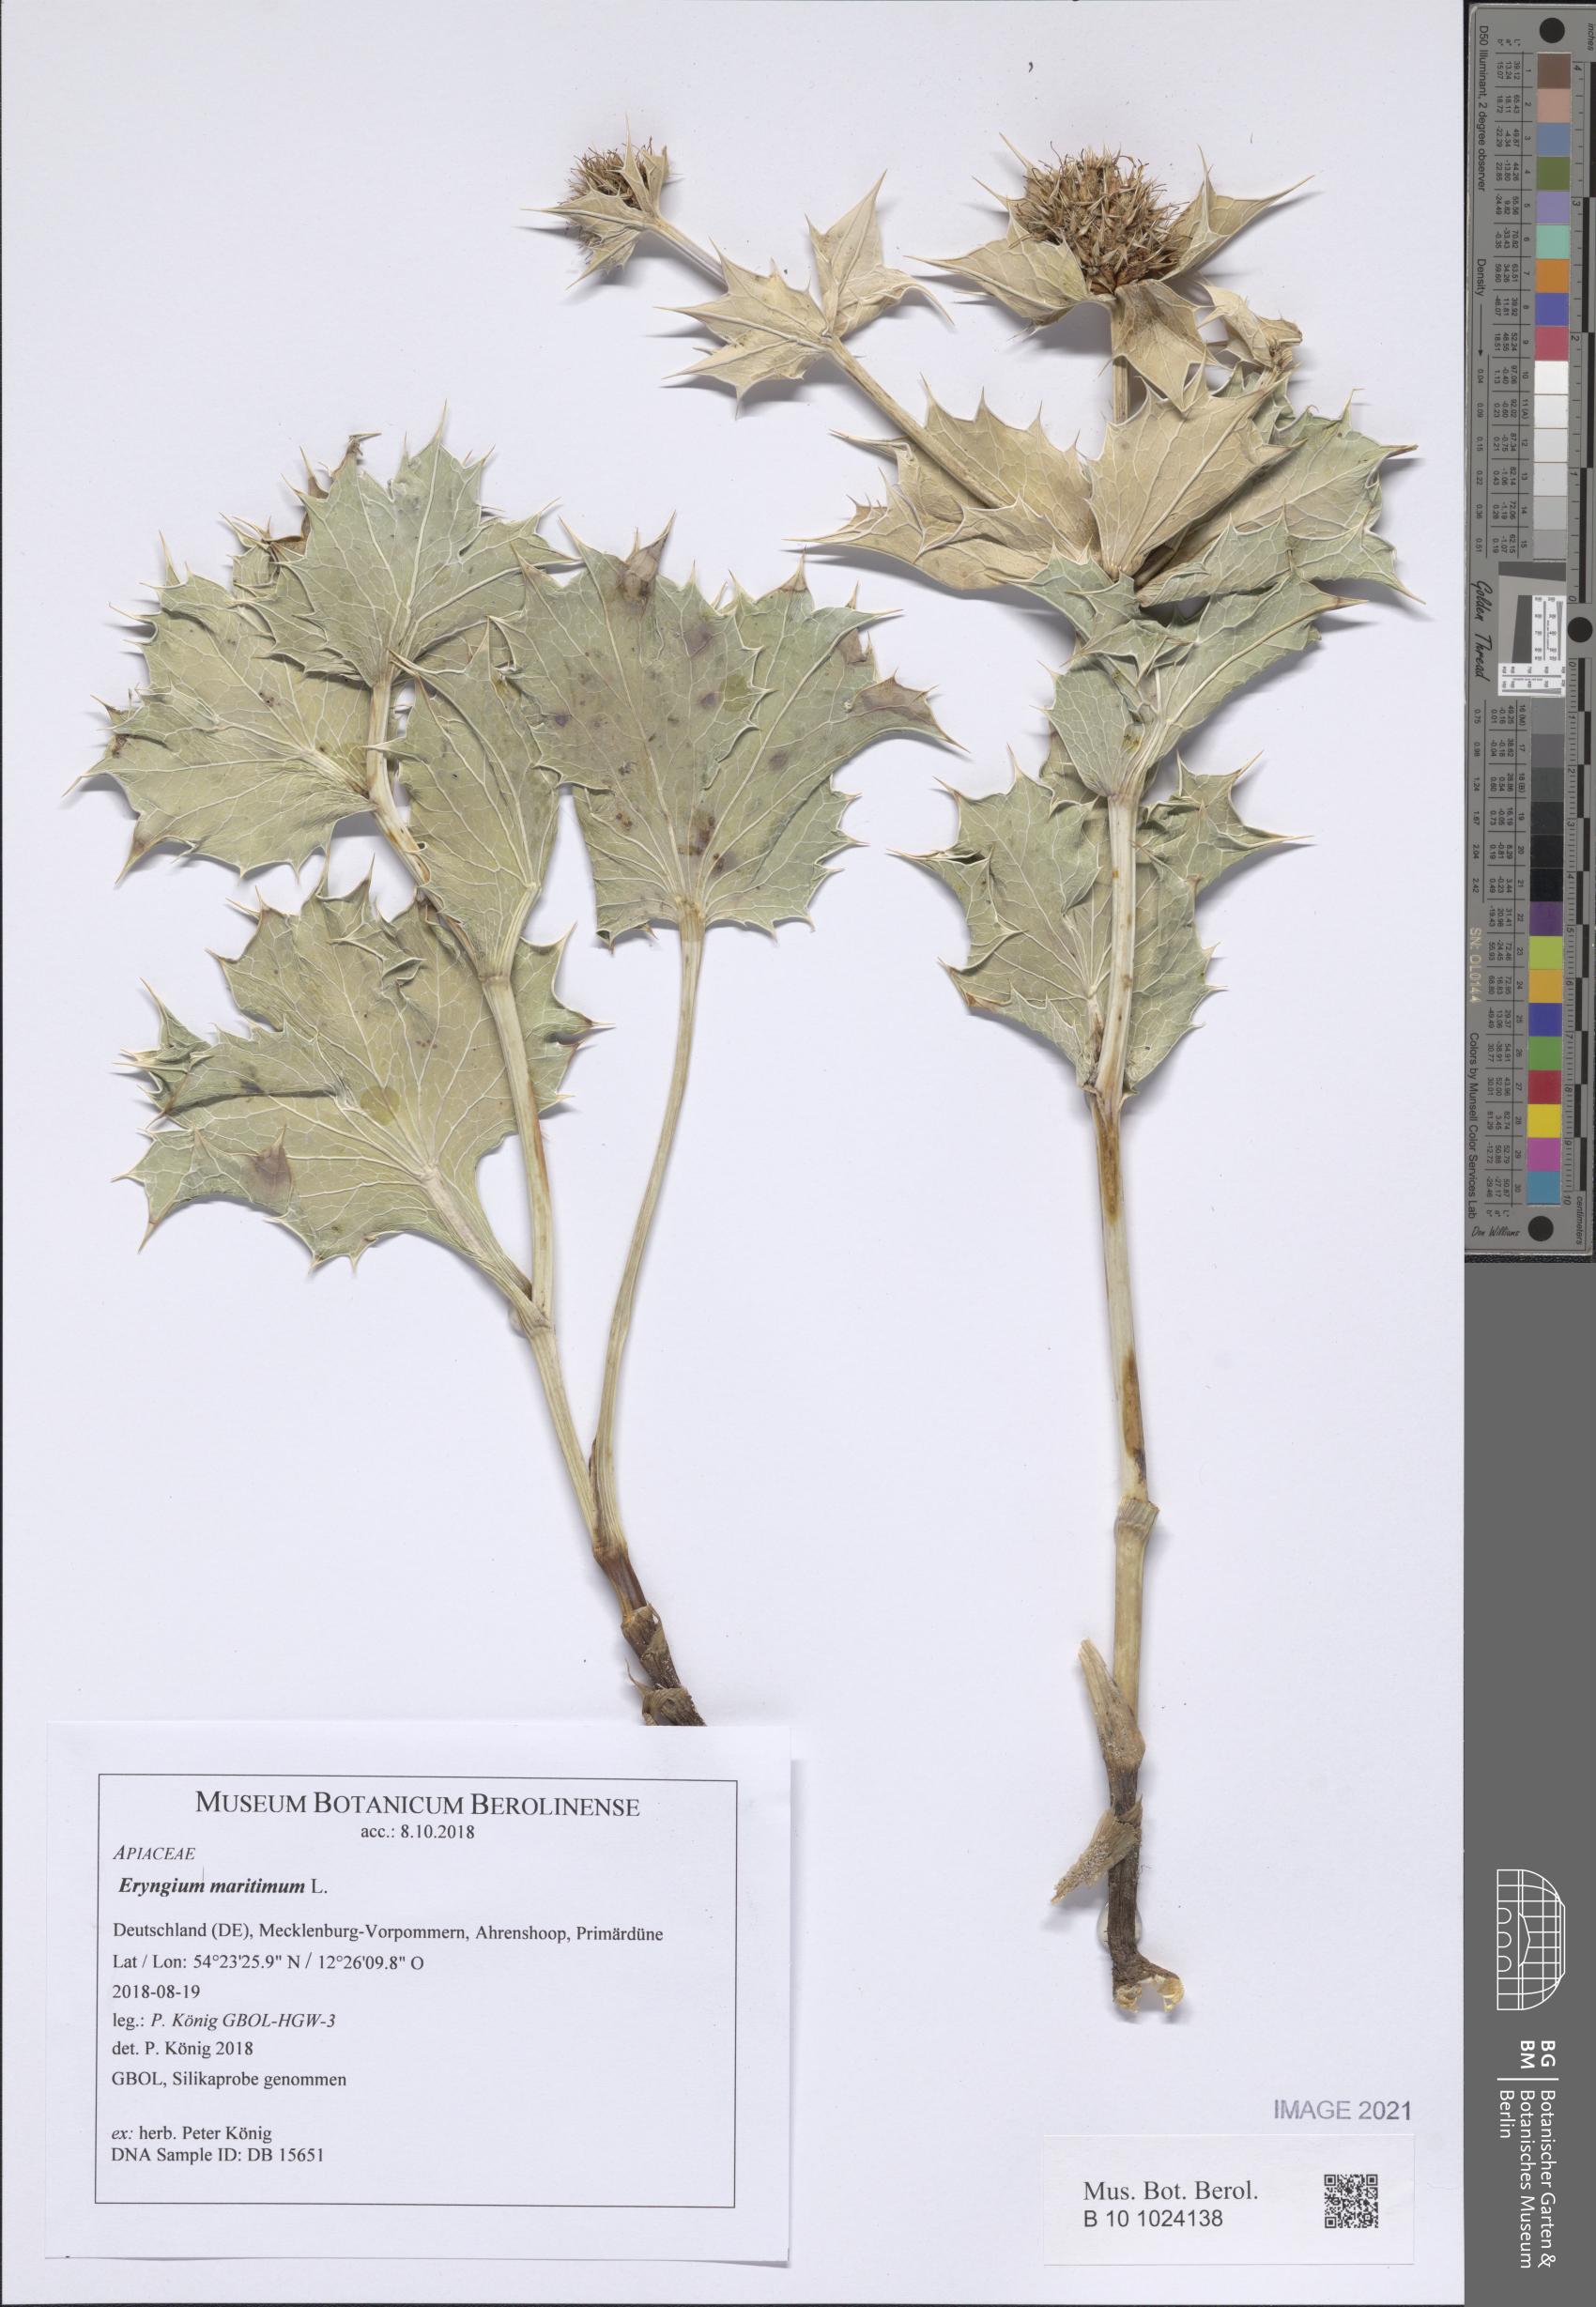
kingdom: Plantae
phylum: Tracheophyta
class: Magnoliopsida
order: Apiales
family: Apiaceae
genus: Eryngium
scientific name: Eryngium maritimum
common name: Sea-holly
